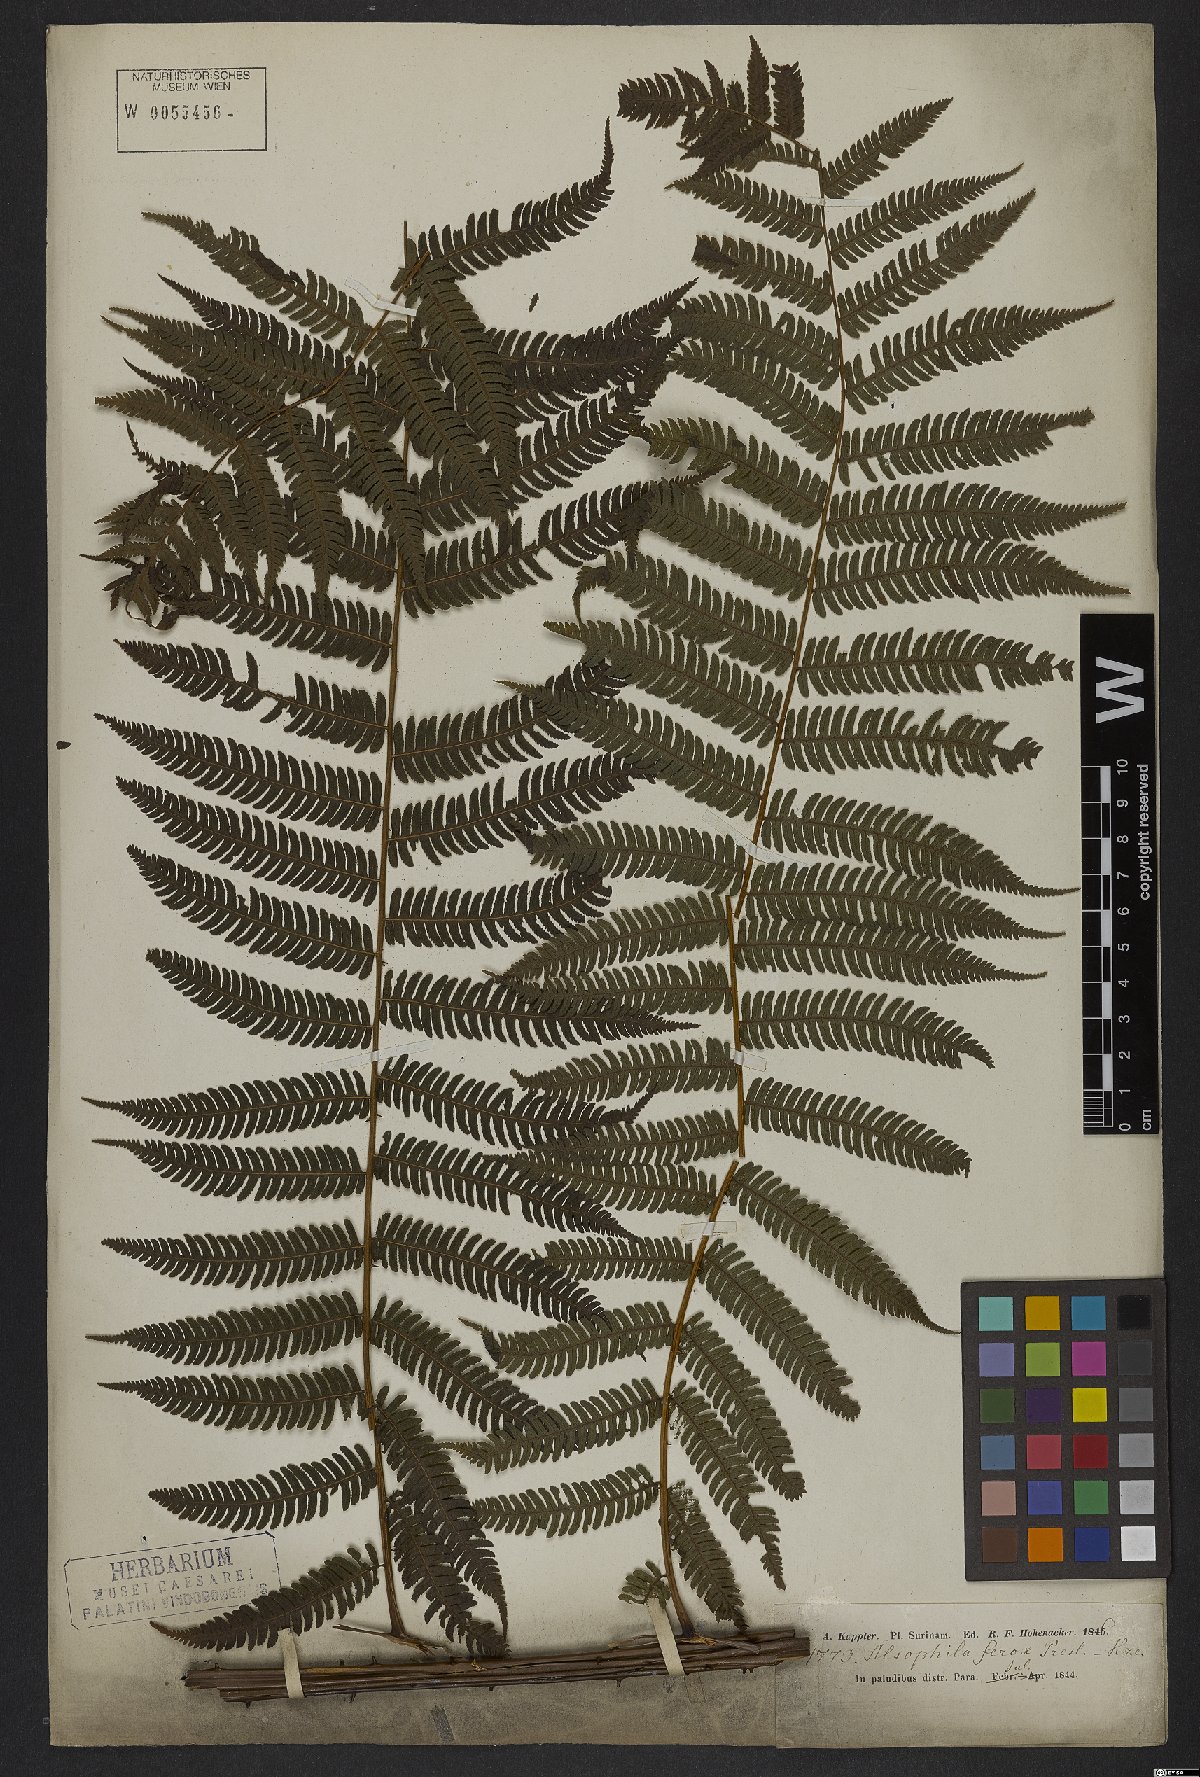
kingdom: Plantae
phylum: Tracheophyta
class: Polypodiopsida
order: Cyatheales
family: Cyatheaceae
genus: Cyathea
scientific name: Cyathea microdonta
